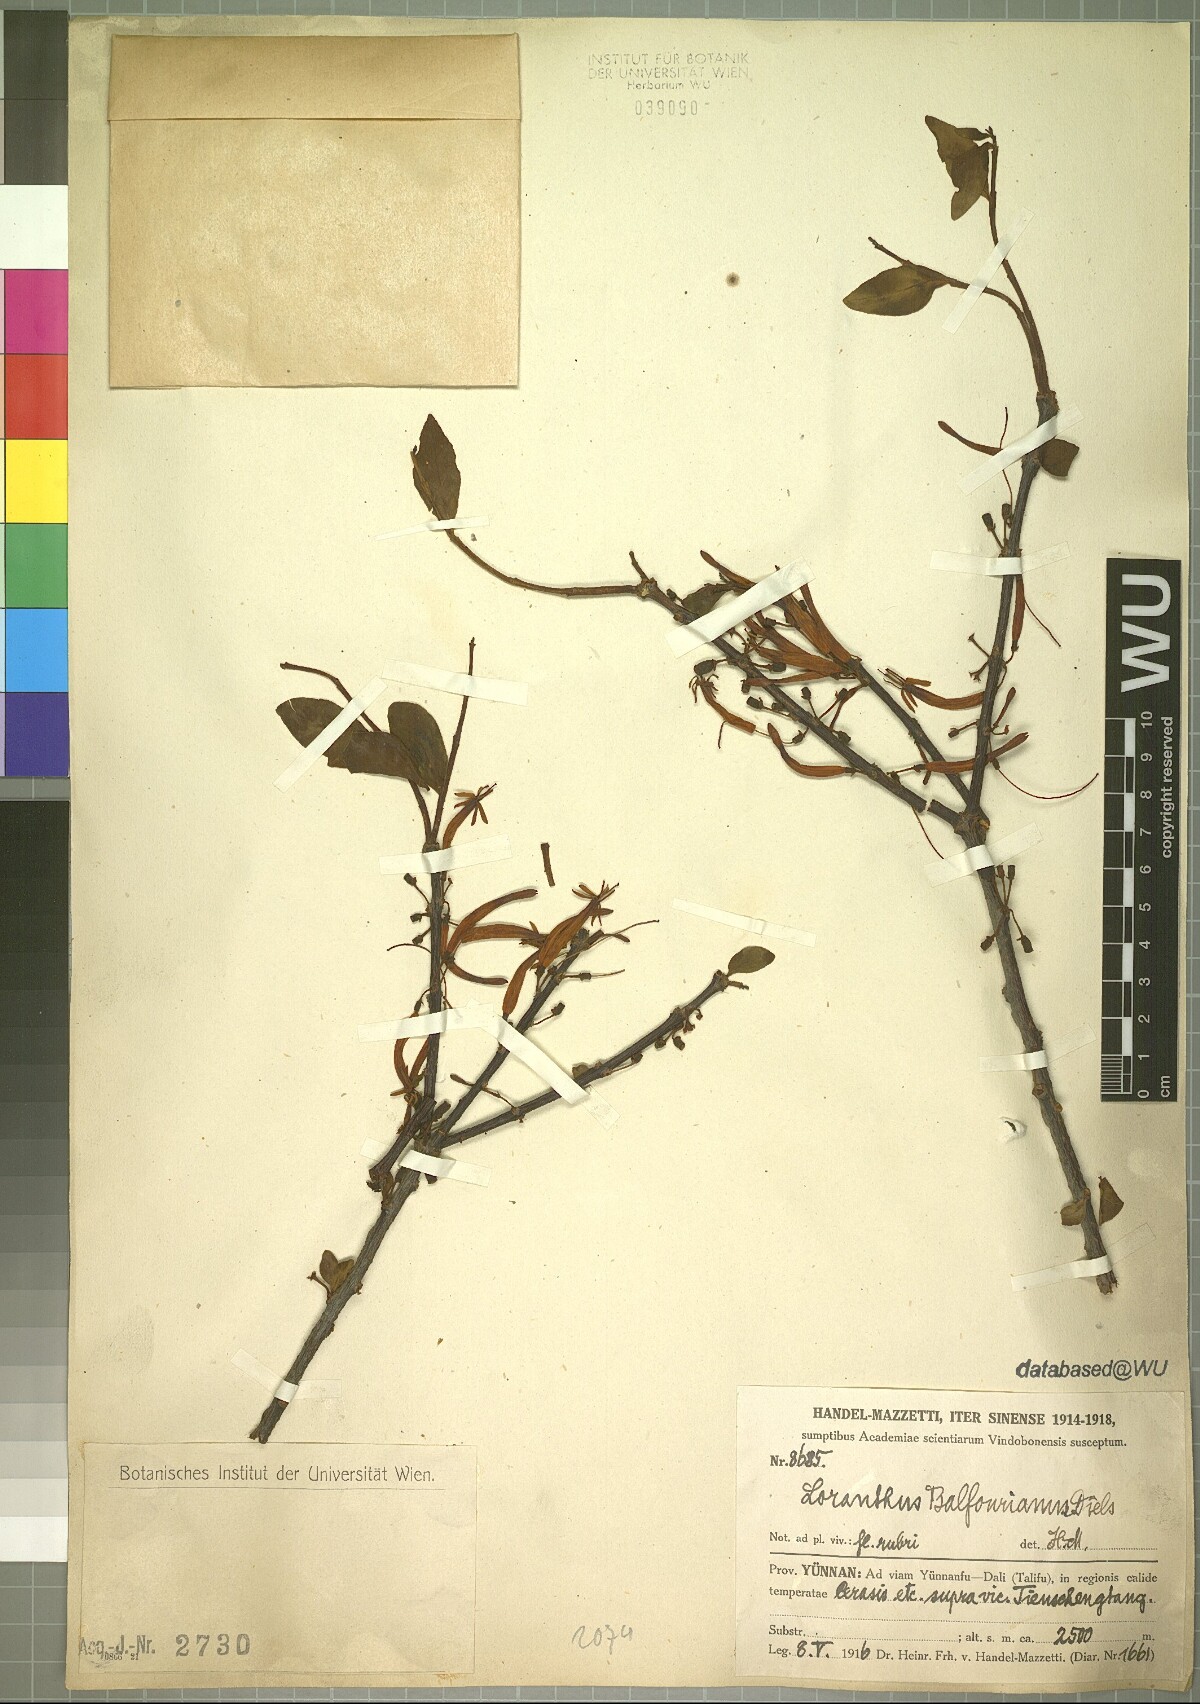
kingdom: Plantae
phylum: Tracheophyta
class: Magnoliopsida
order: Santalales
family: Loranthaceae
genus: Taxillus
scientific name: Taxillus delavayi
